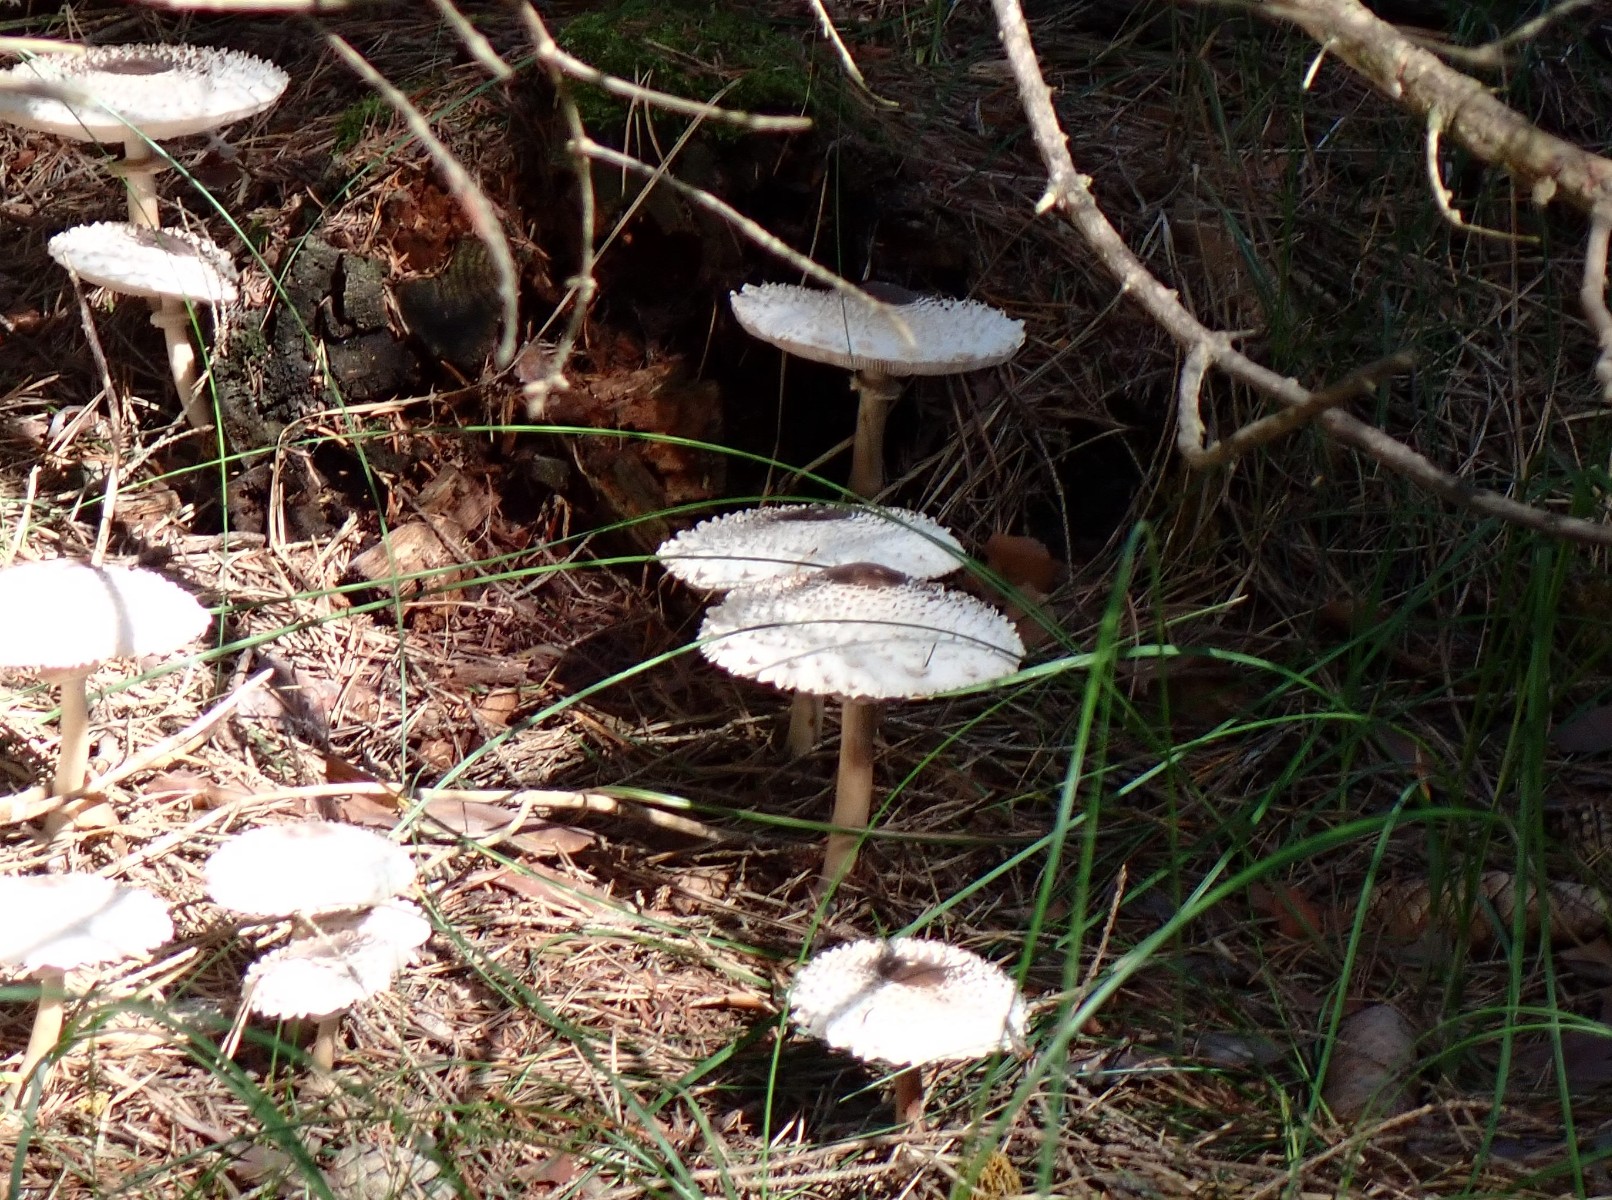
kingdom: Fungi
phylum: Basidiomycota
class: Agaricomycetes
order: Agaricales
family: Agaricaceae
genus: Leucoagaricus
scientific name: Leucoagaricus nympharum
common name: gran-silkehat
